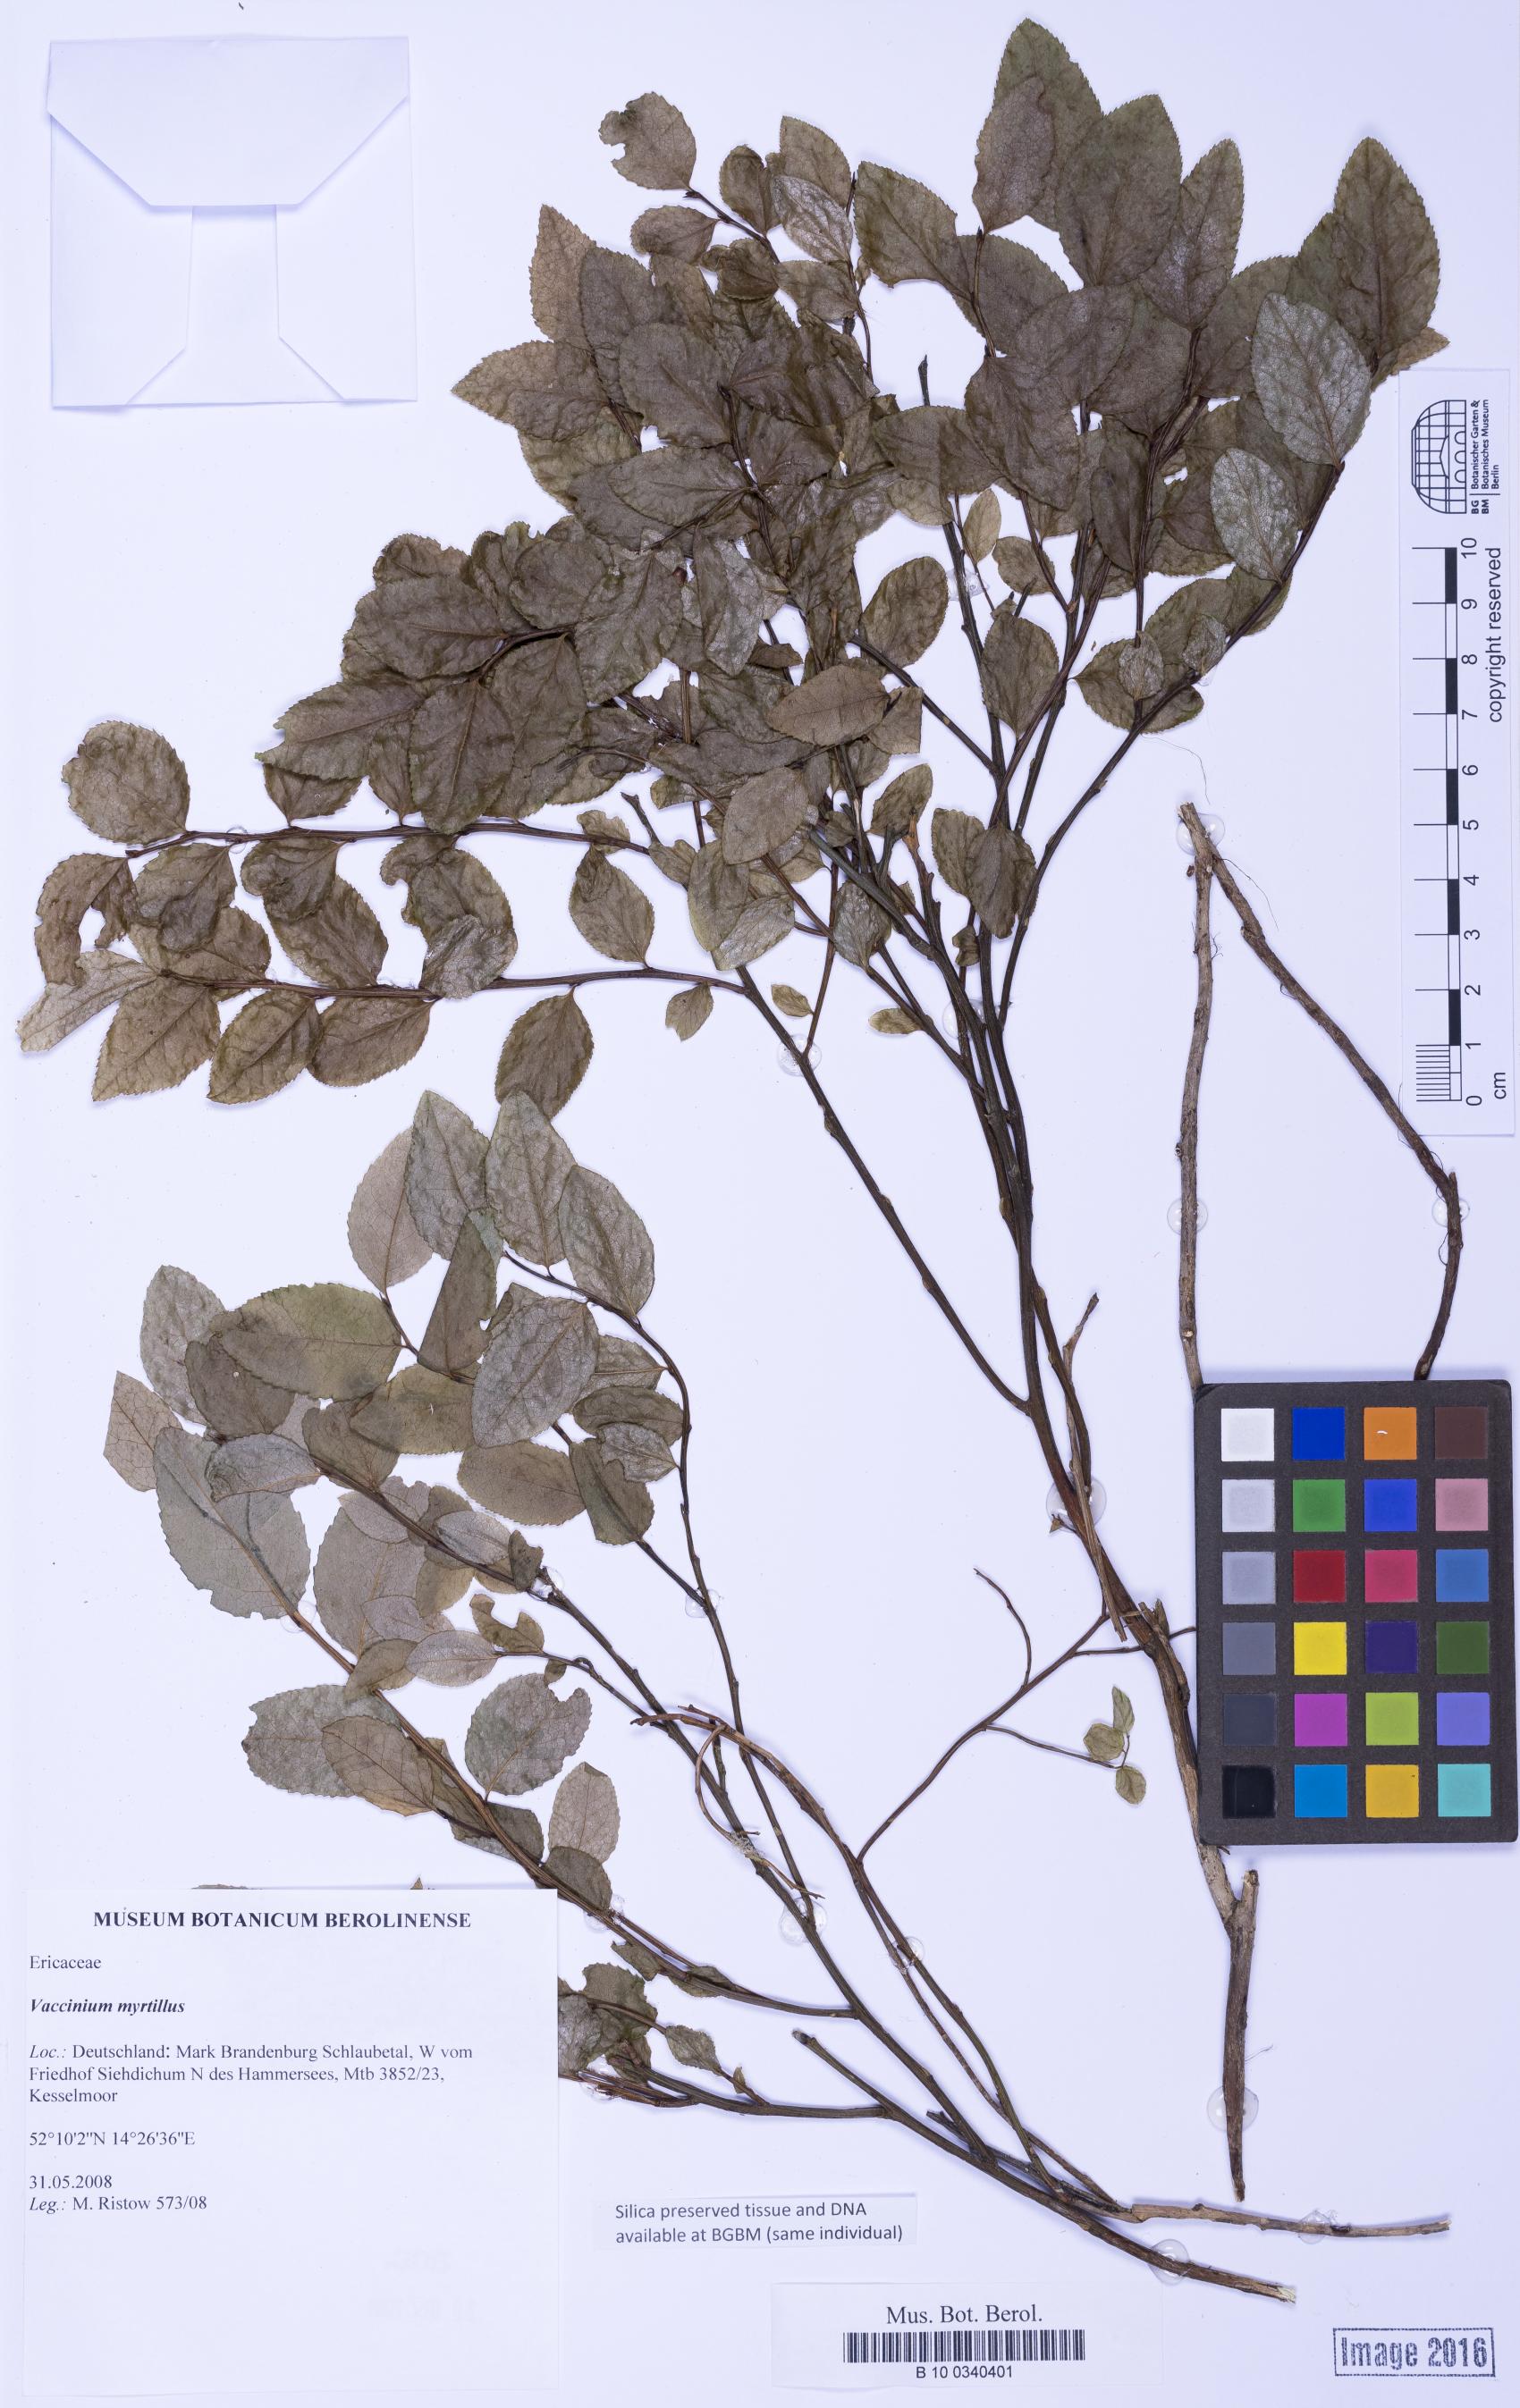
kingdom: Plantae
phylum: Tracheophyta
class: Magnoliopsida
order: Ericales
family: Ericaceae
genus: Vaccinium
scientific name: Vaccinium myrtillus
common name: Bilberry
